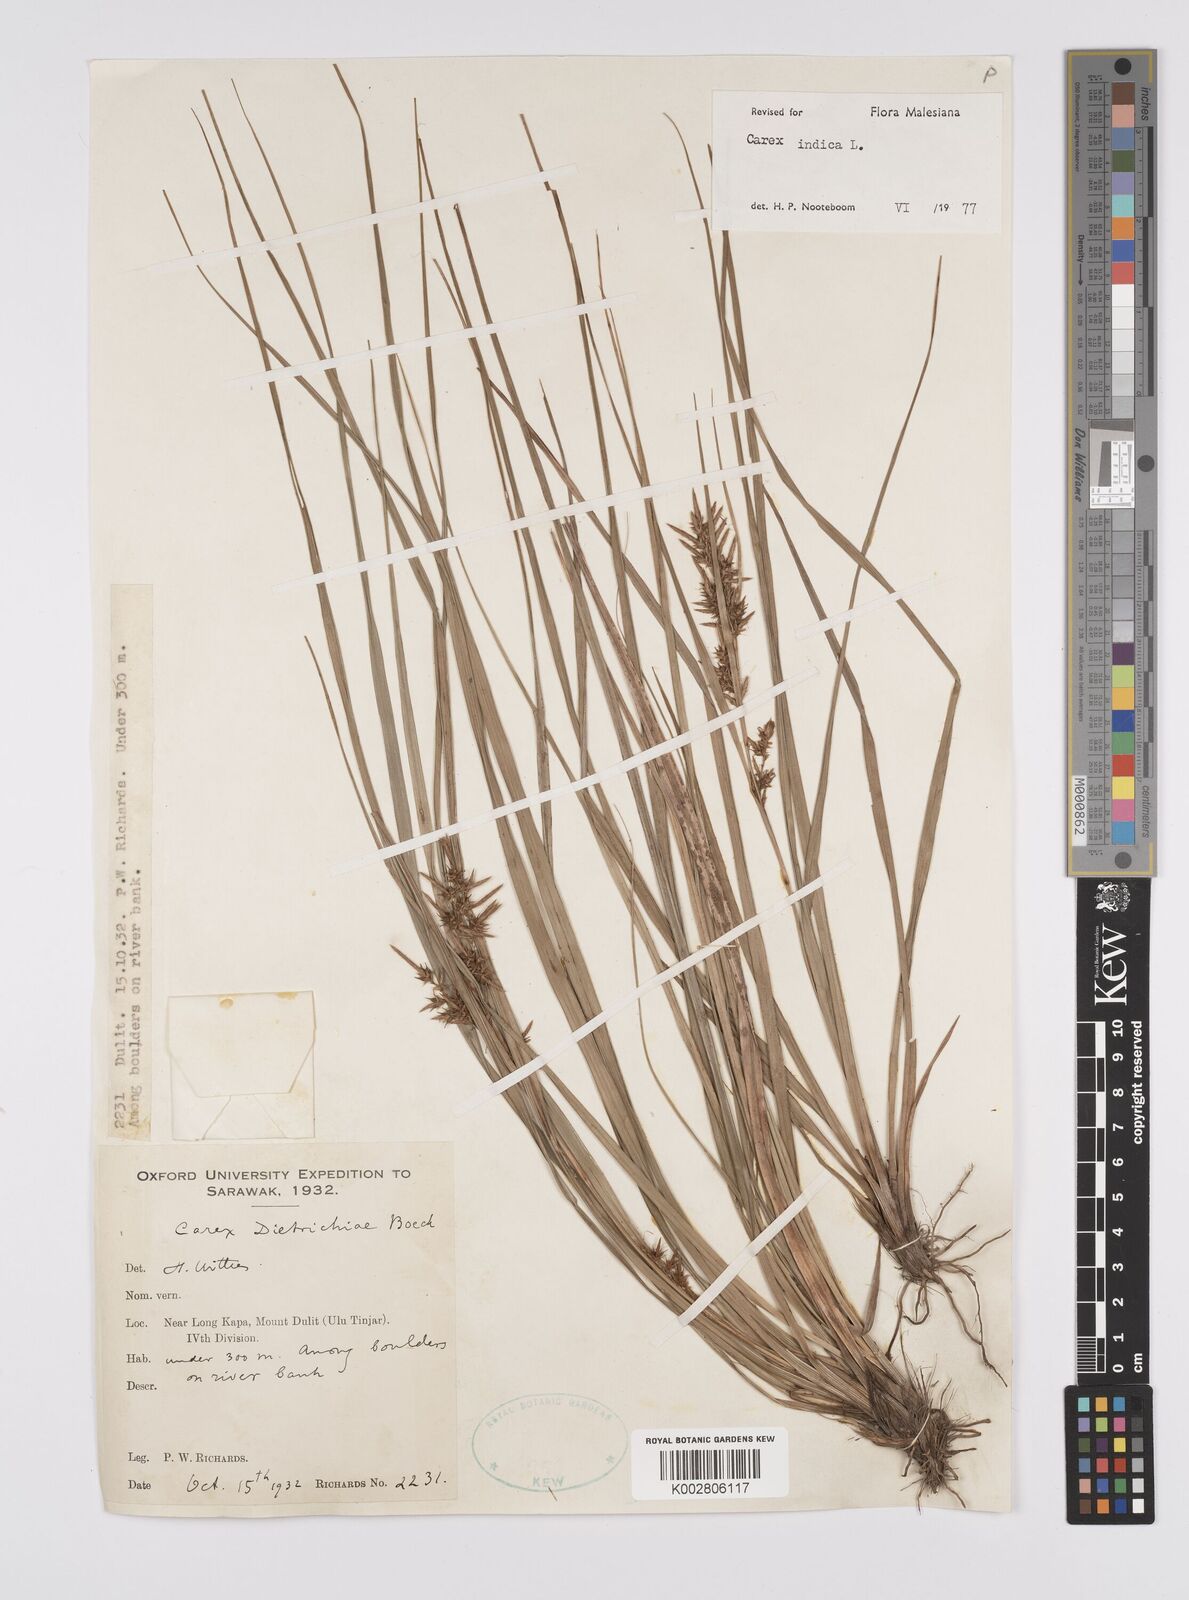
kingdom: Plantae
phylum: Tracheophyta
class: Liliopsida
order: Poales
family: Cyperaceae
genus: Carex
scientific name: Carex indica
